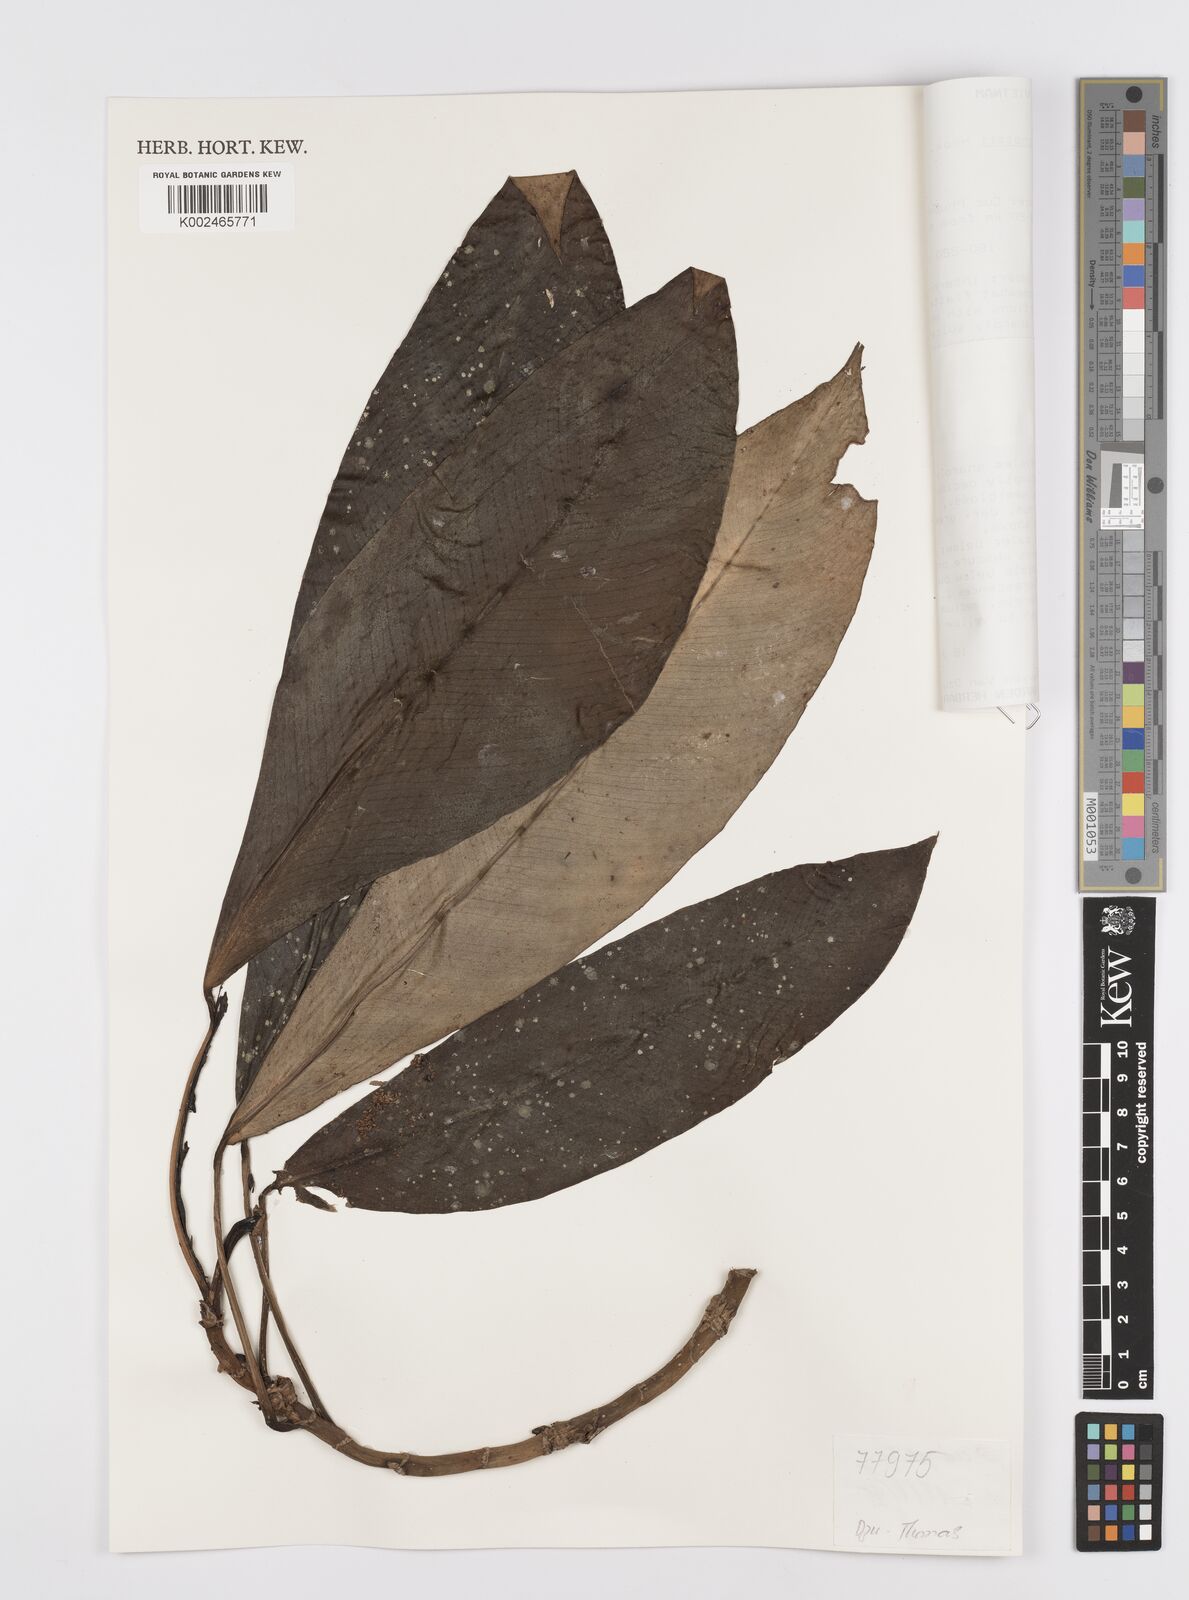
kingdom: Plantae
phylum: Tracheophyta
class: Liliopsida
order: Alismatales
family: Araceae
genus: Rhaphidophora
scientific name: Rhaphidophora
